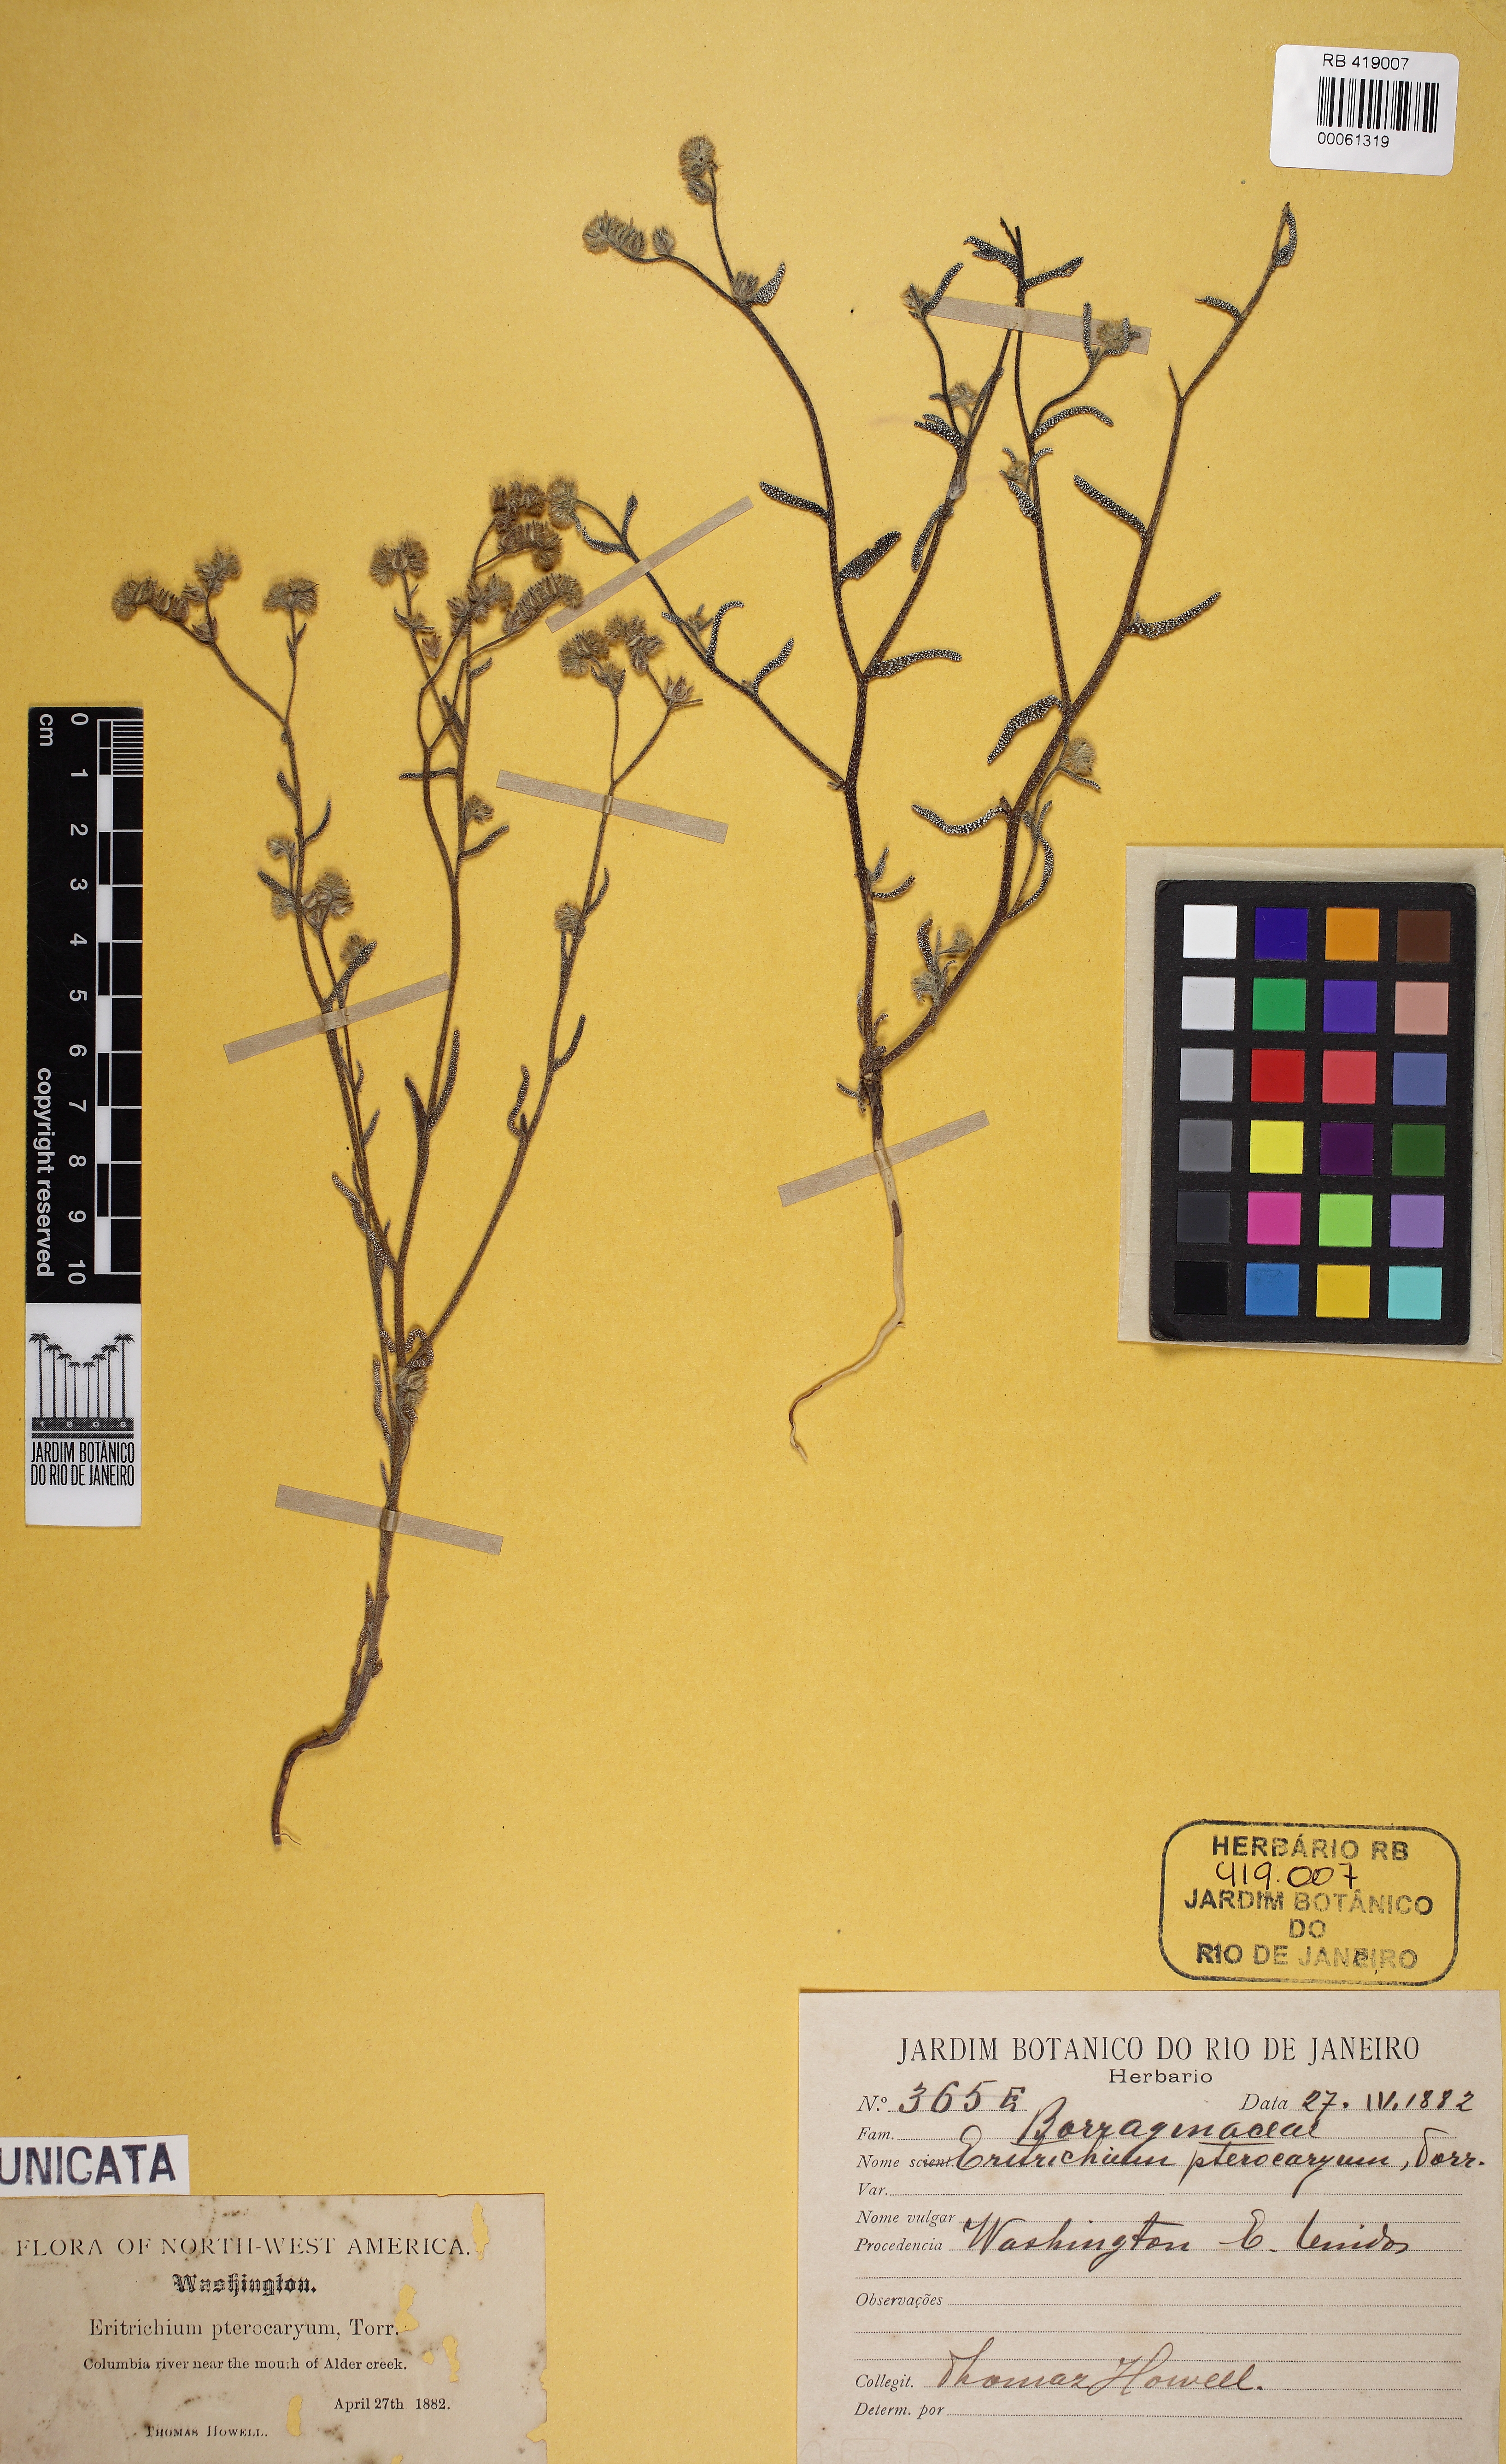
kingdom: Plantae
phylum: Tracheophyta
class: Magnoliopsida
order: Boraginales
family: Boraginaceae
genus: Cryptantha
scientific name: Cryptantha pterocarya
